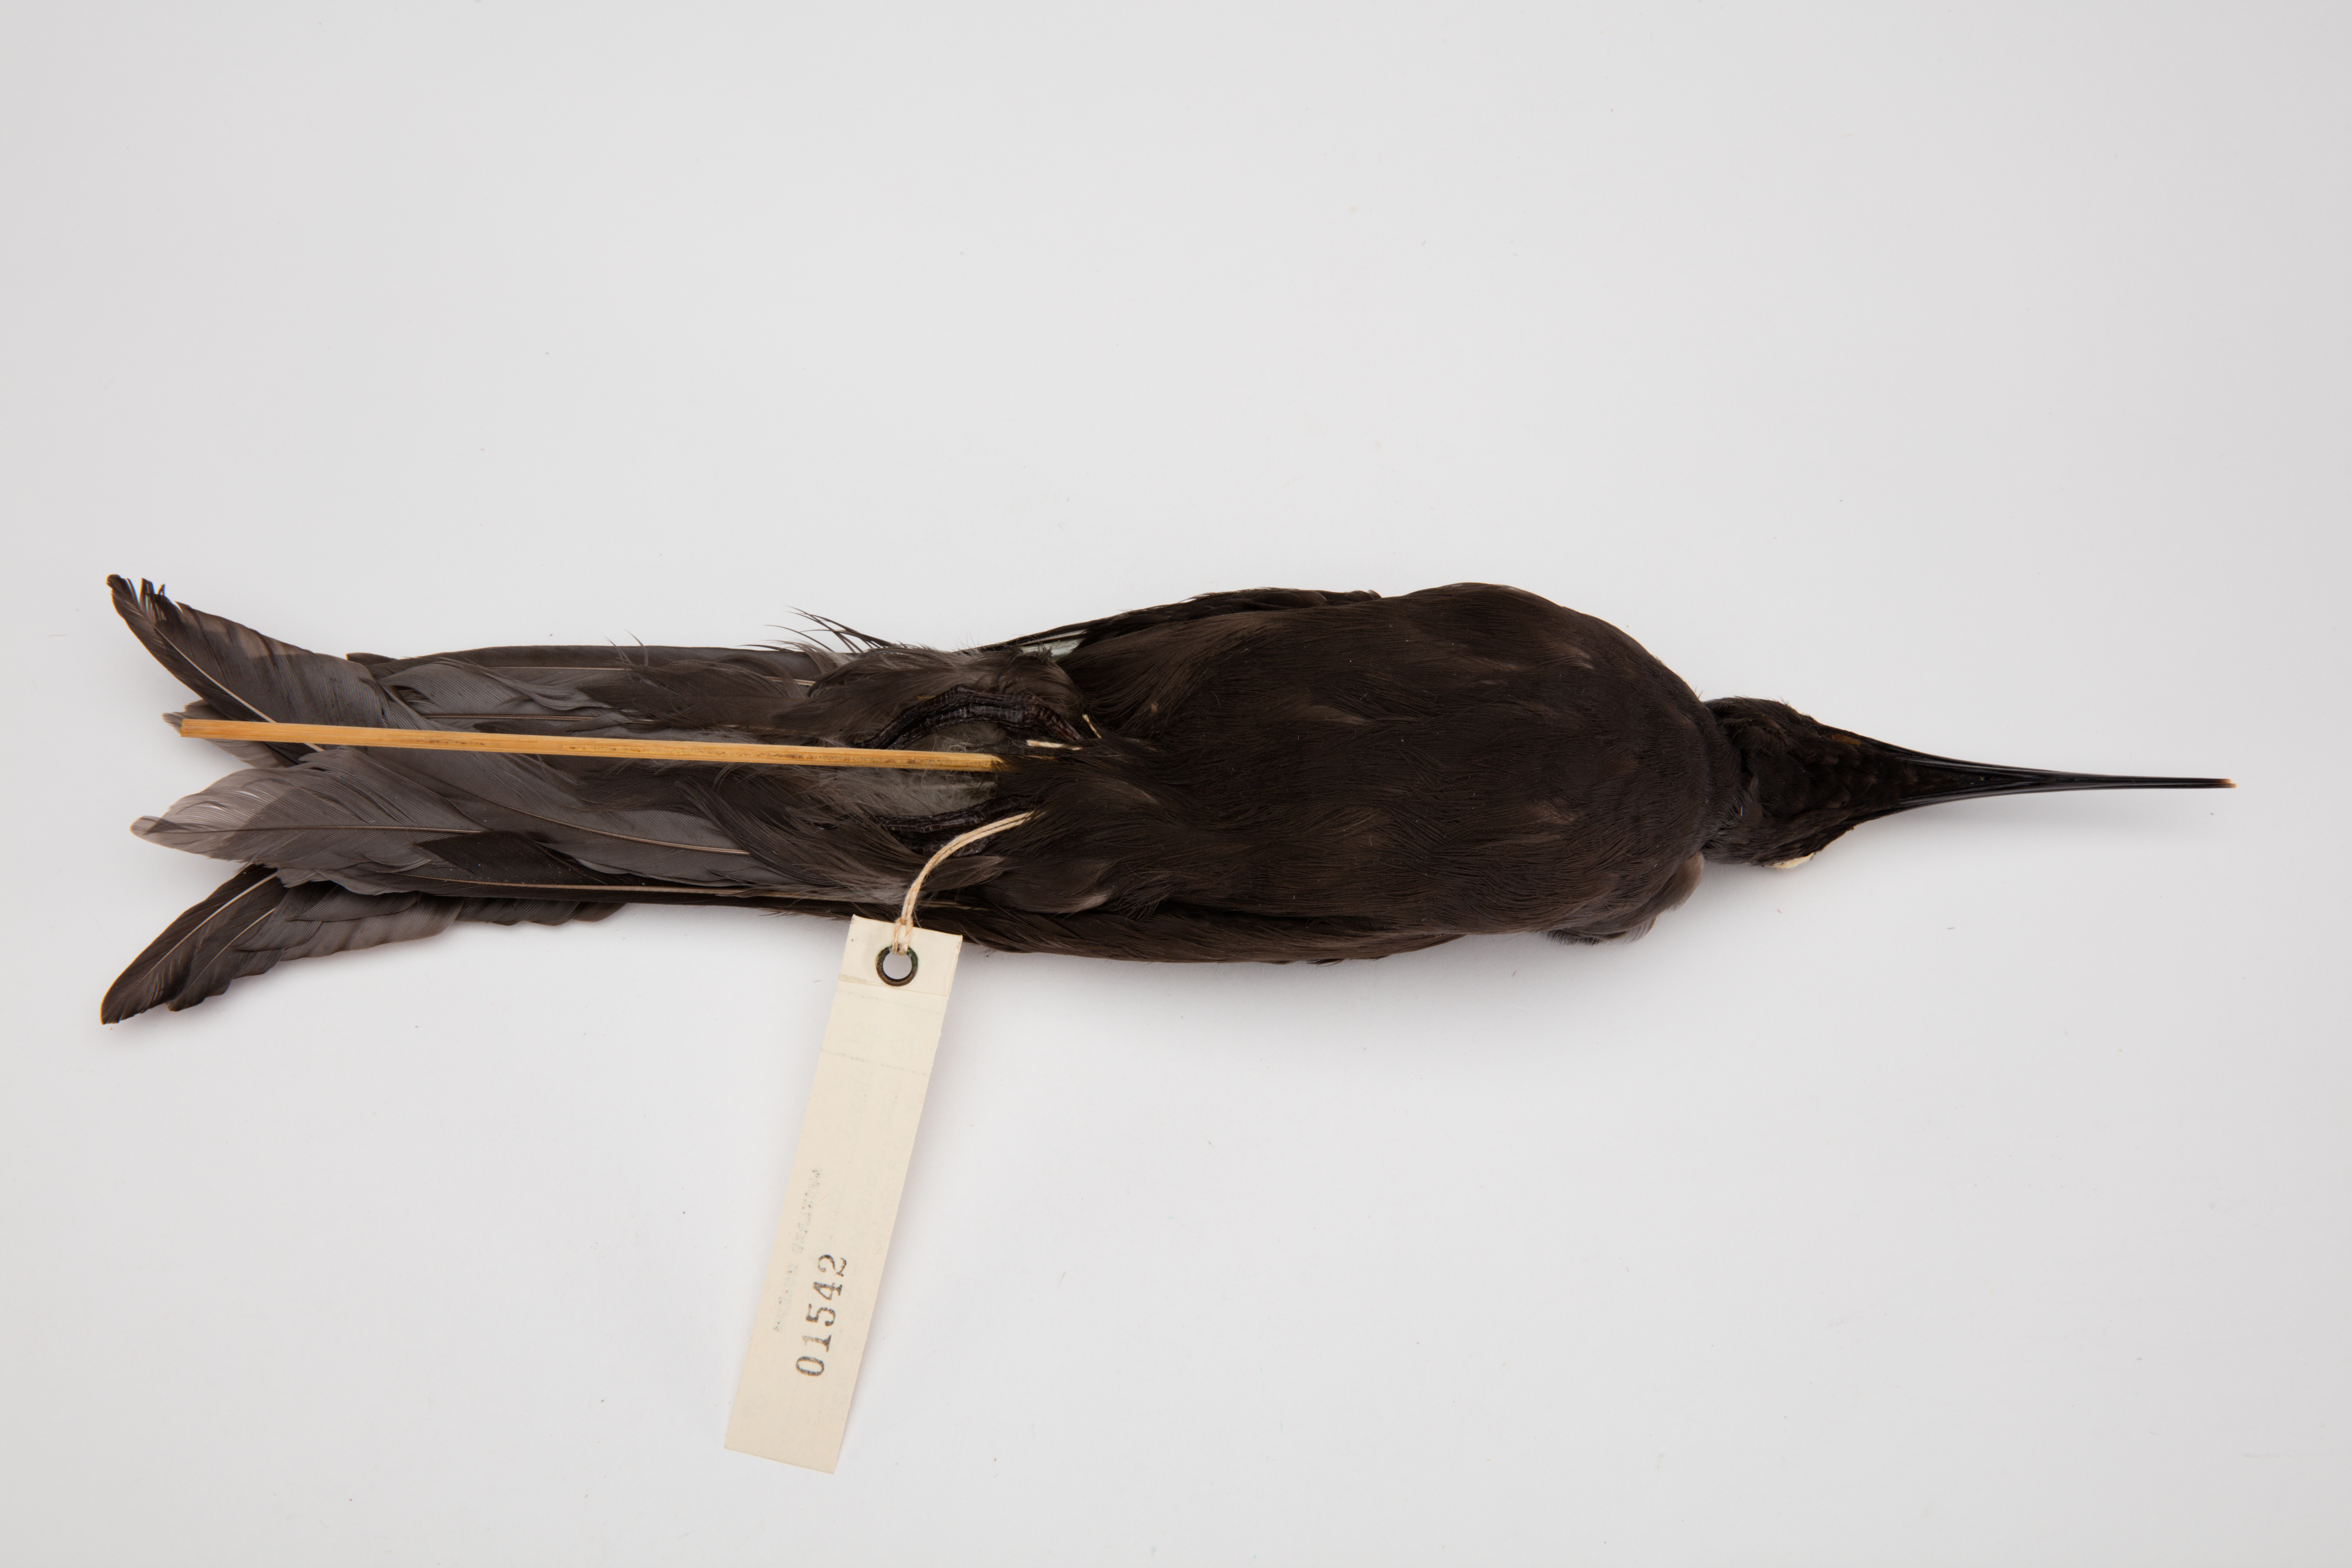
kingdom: Animalia
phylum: Chordata
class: Aves
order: Charadriiformes
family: Laridae
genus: Anous
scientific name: Anous minutus
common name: Black noddy
